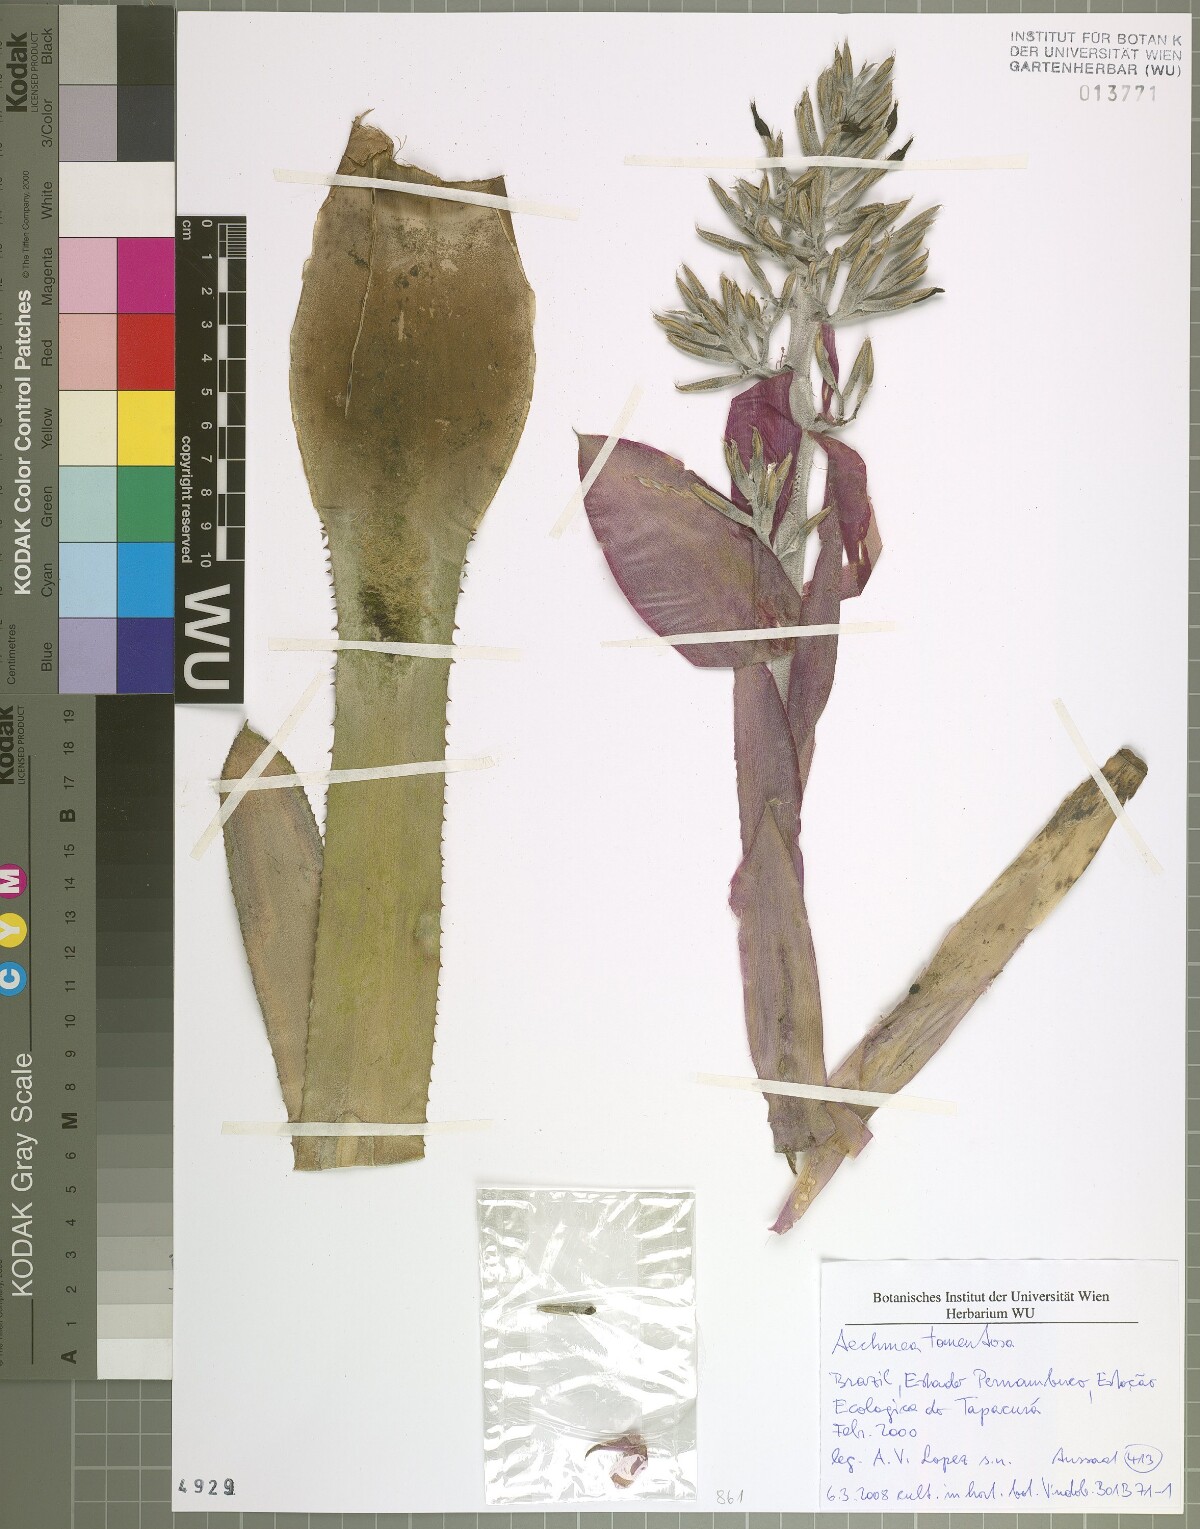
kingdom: Plantae
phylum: Tracheophyta
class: Liliopsida
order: Poales
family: Bromeliaceae
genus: Aechmea
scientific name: Aechmea tomentosa
